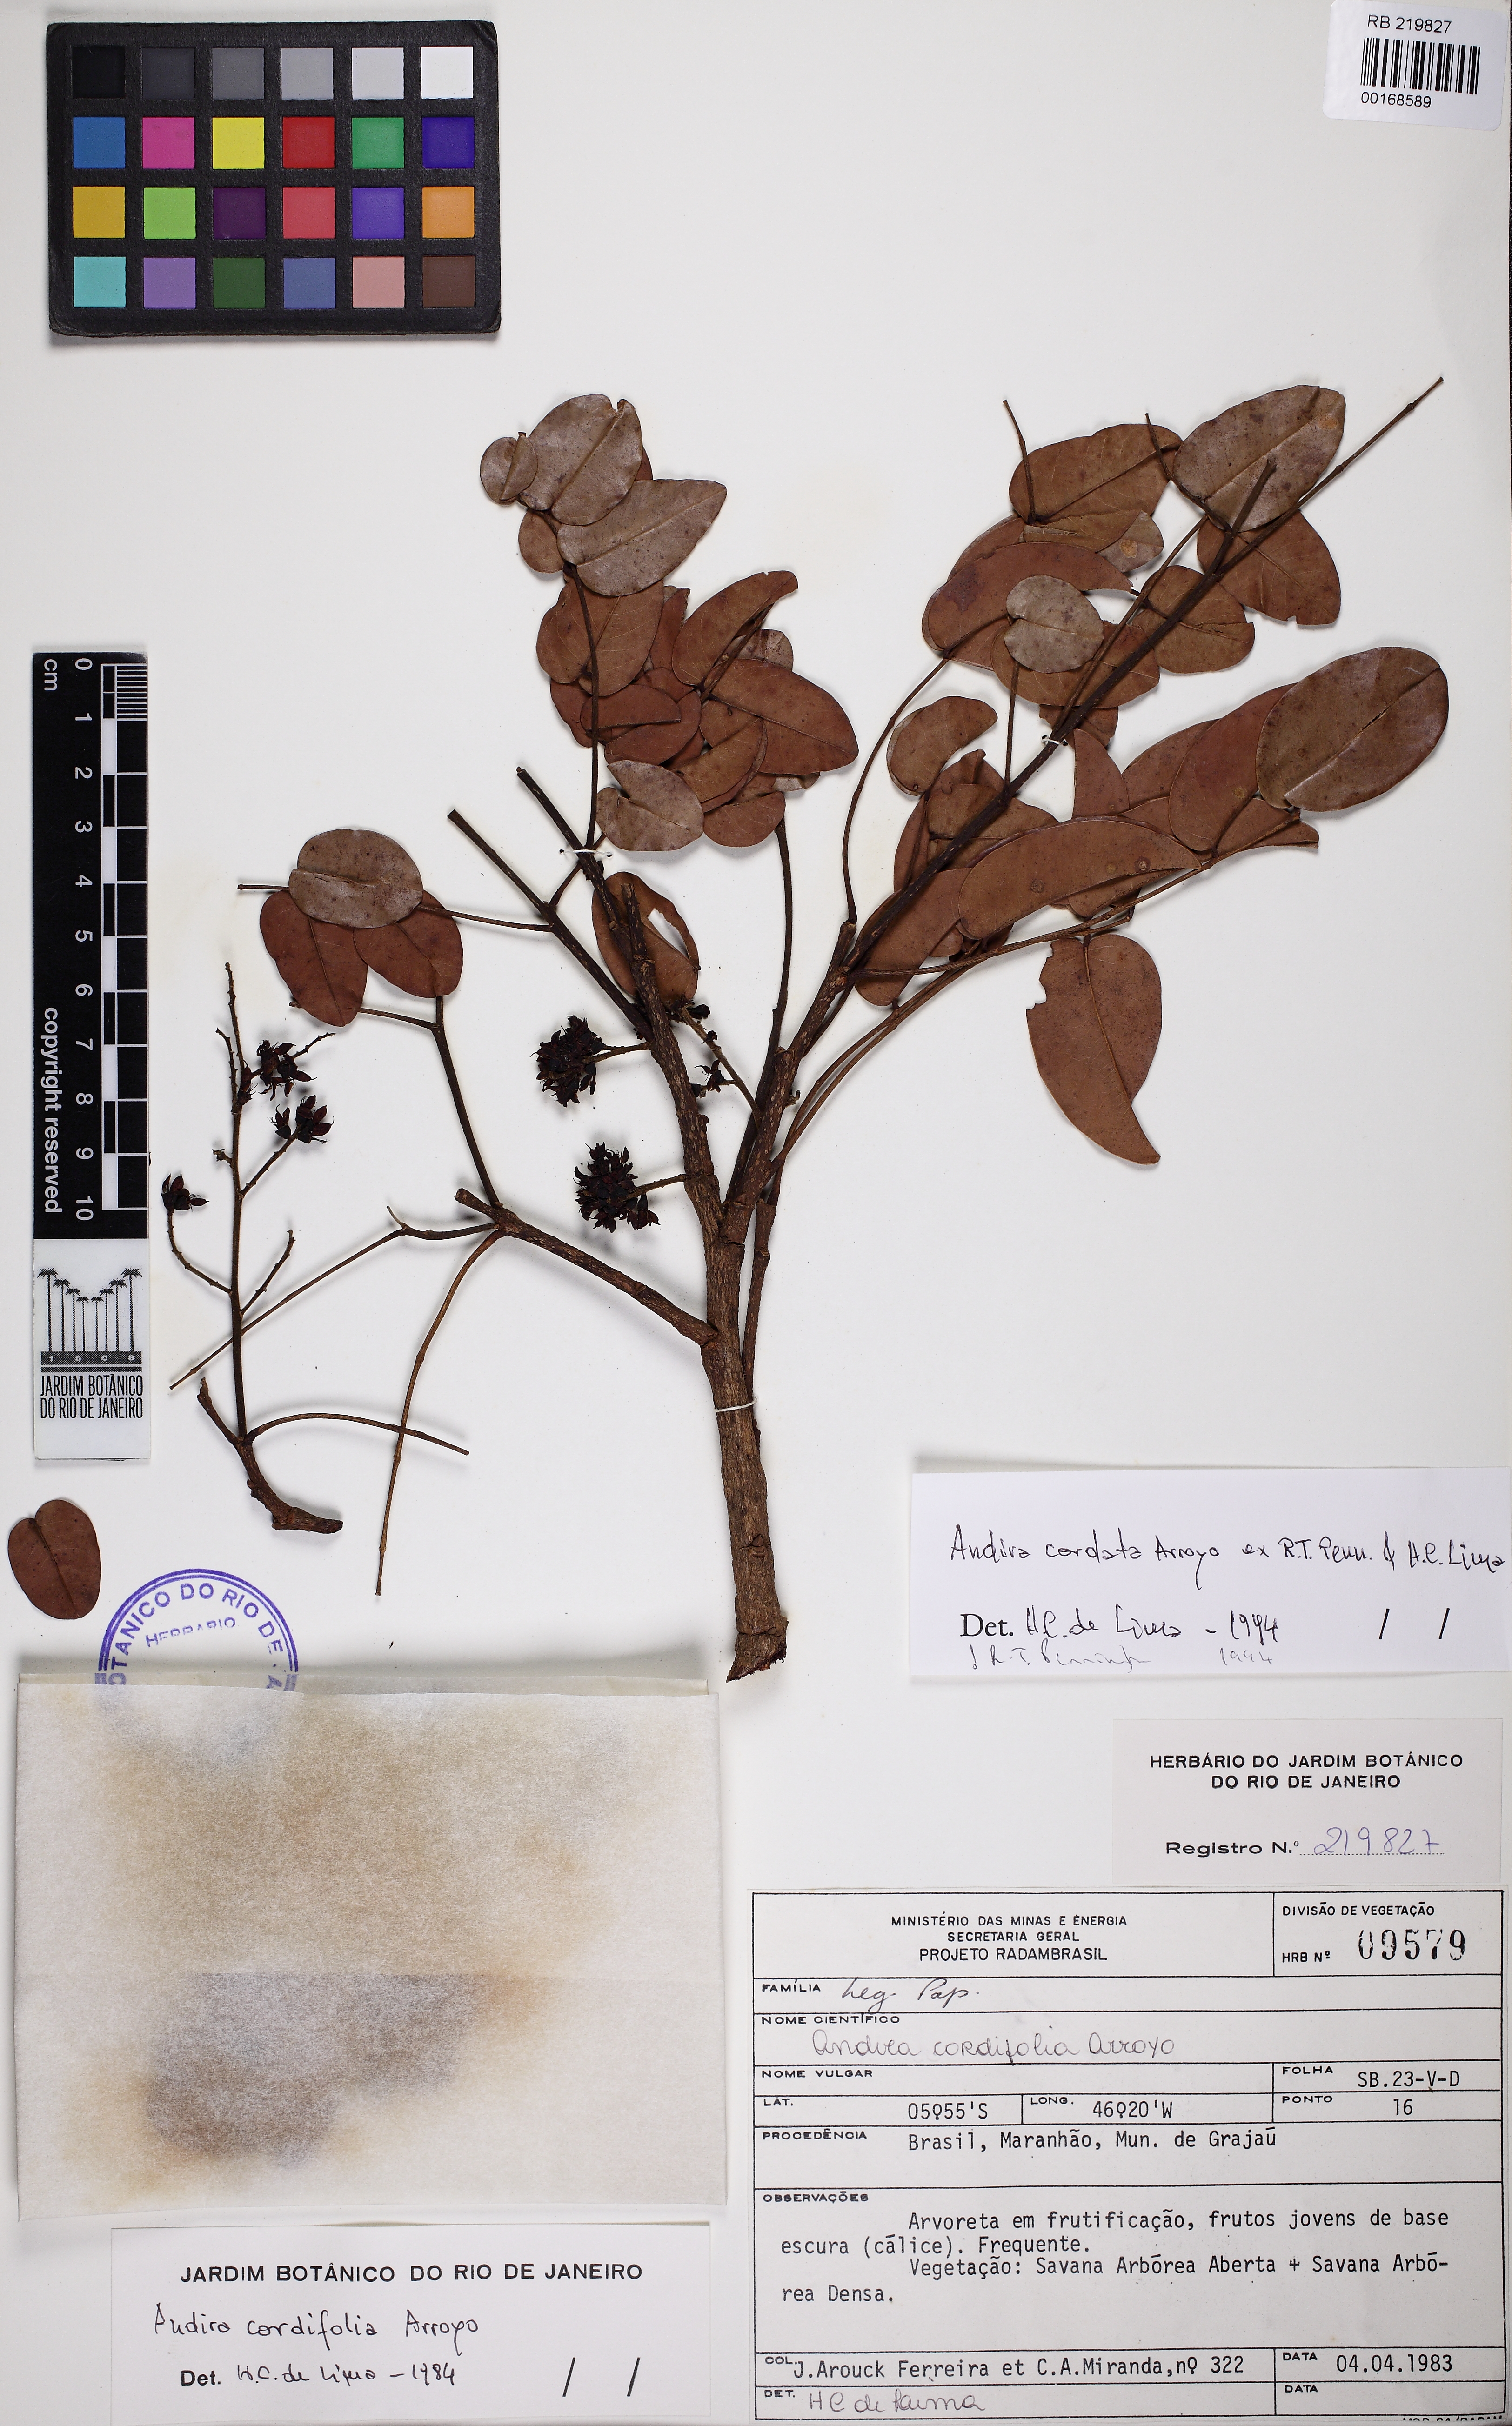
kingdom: Plantae
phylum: Tracheophyta
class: Magnoliopsida
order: Fabales
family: Fabaceae
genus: Andira
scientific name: Andira cordata
